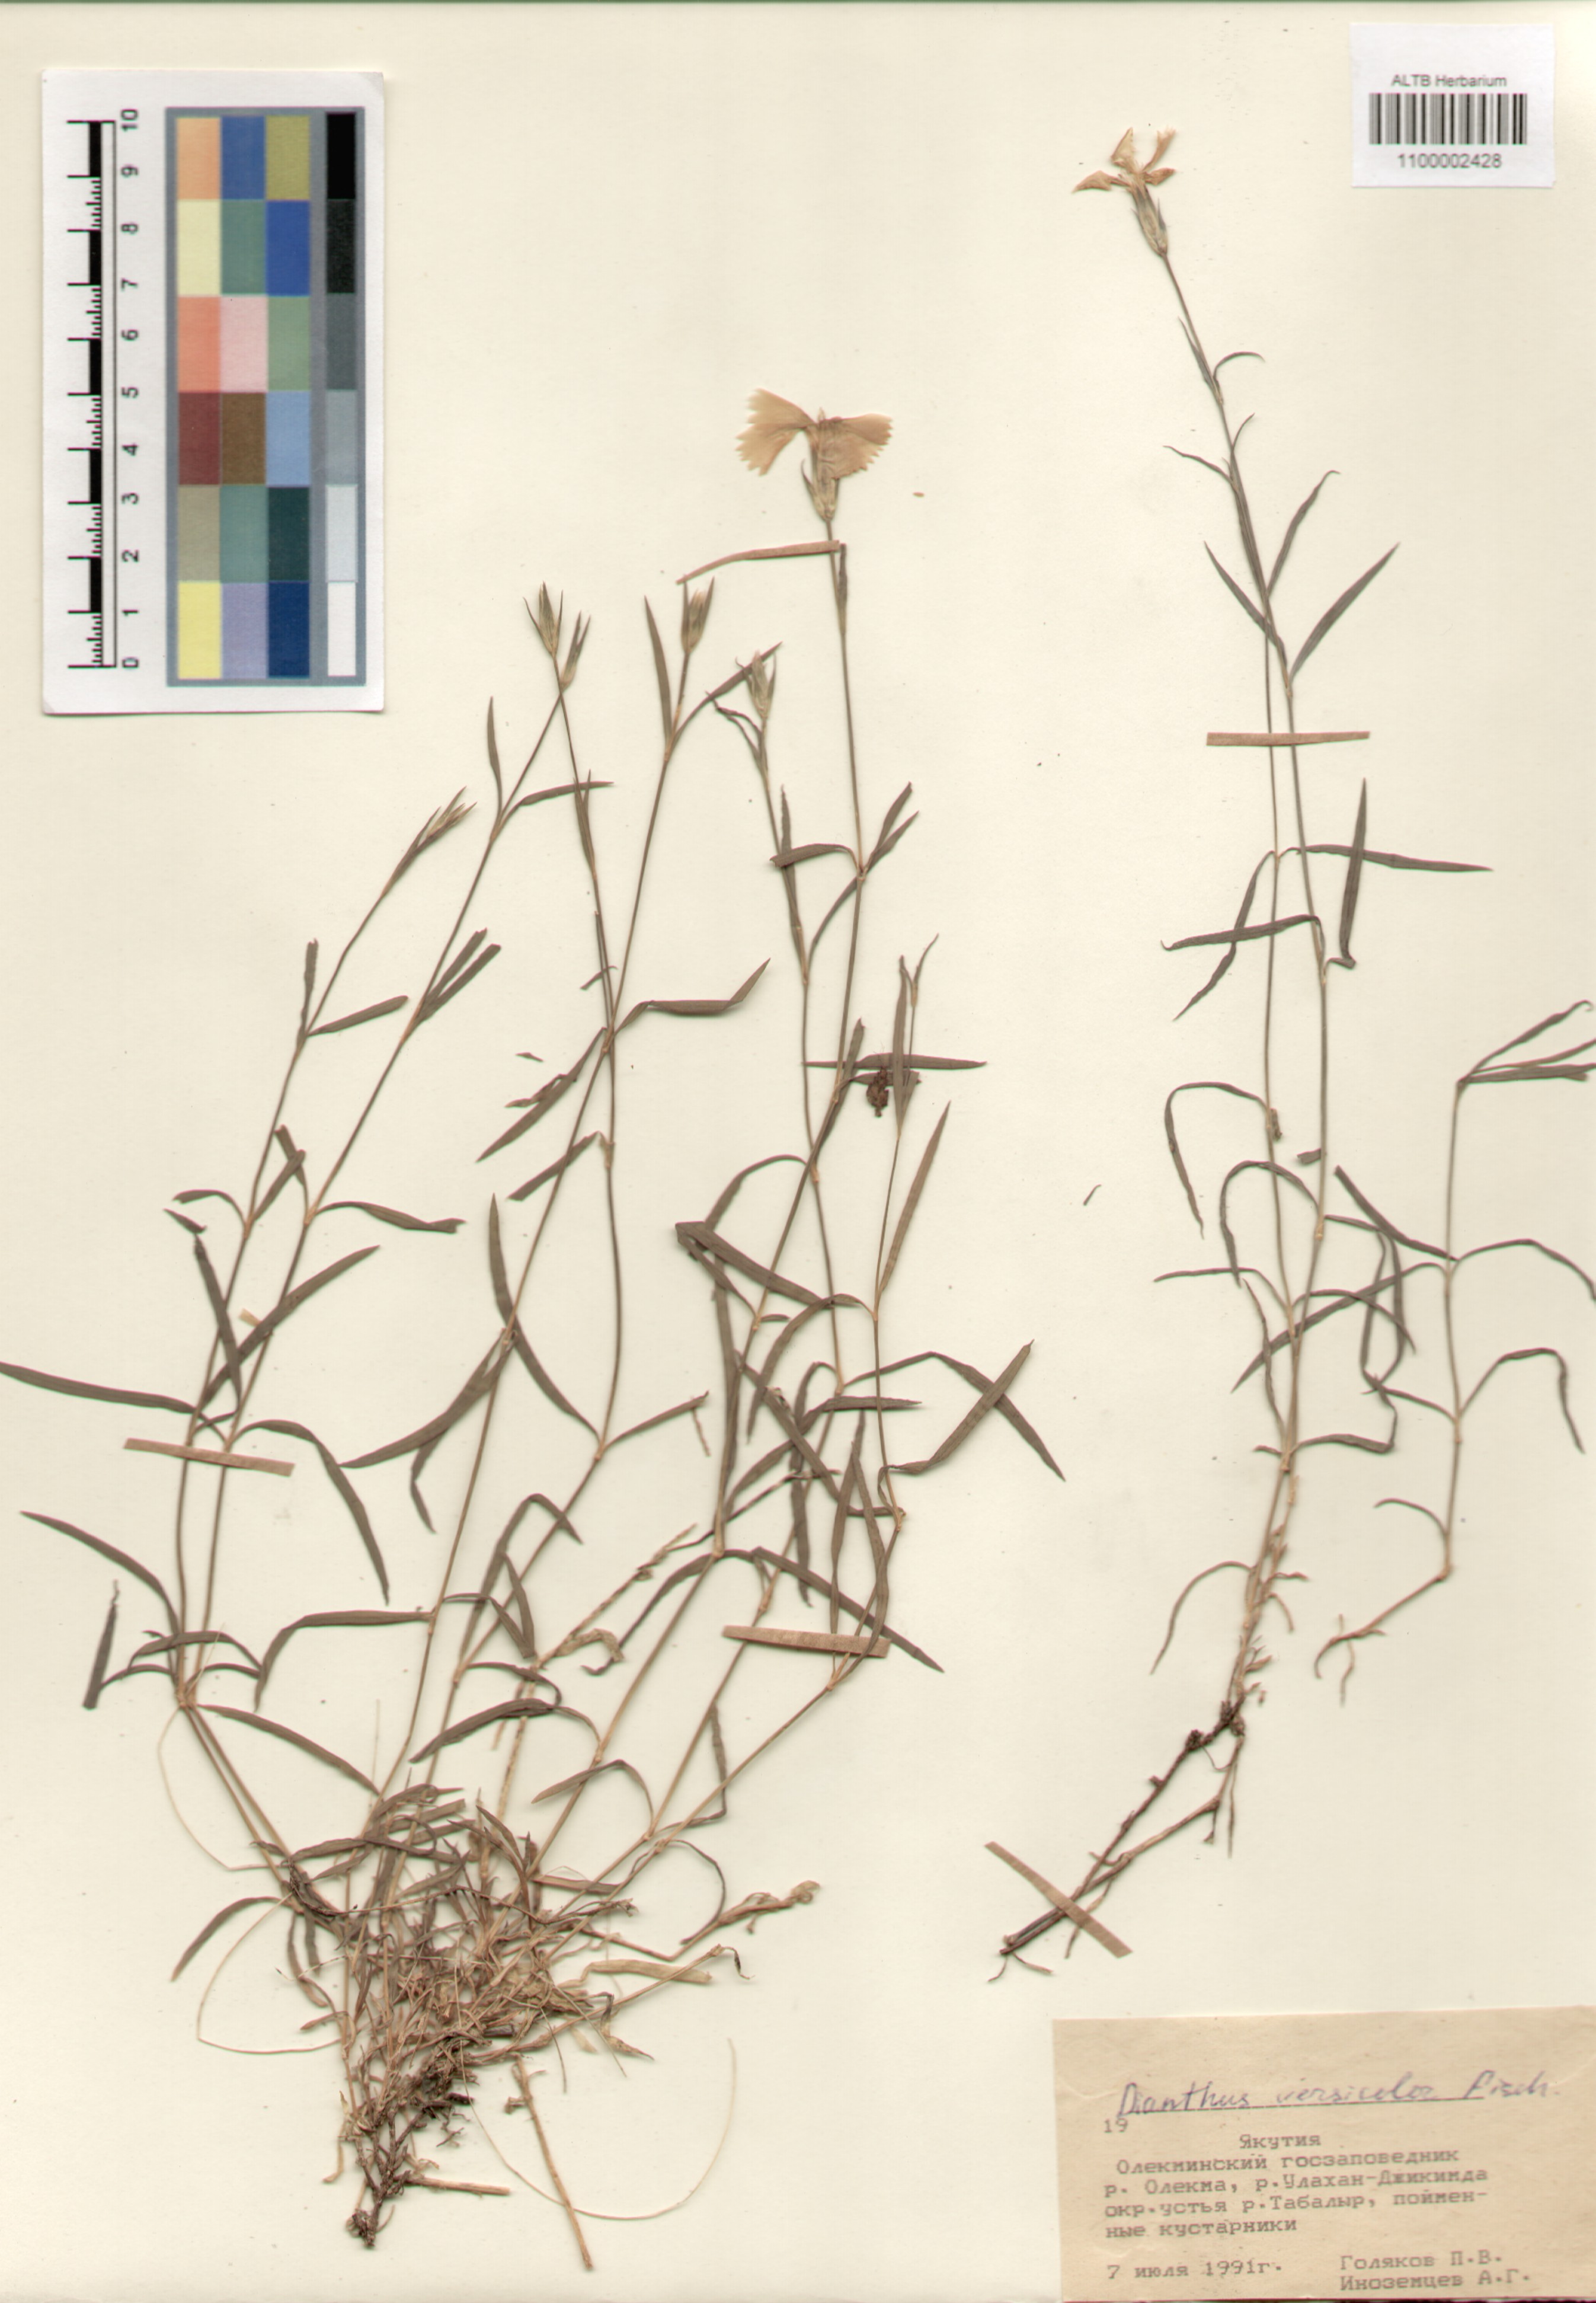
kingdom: Plantae
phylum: Tracheophyta
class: Magnoliopsida
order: Caryophyllales
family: Caryophyllaceae
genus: Dianthus
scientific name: Dianthus chinensis
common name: Rainbow pink
